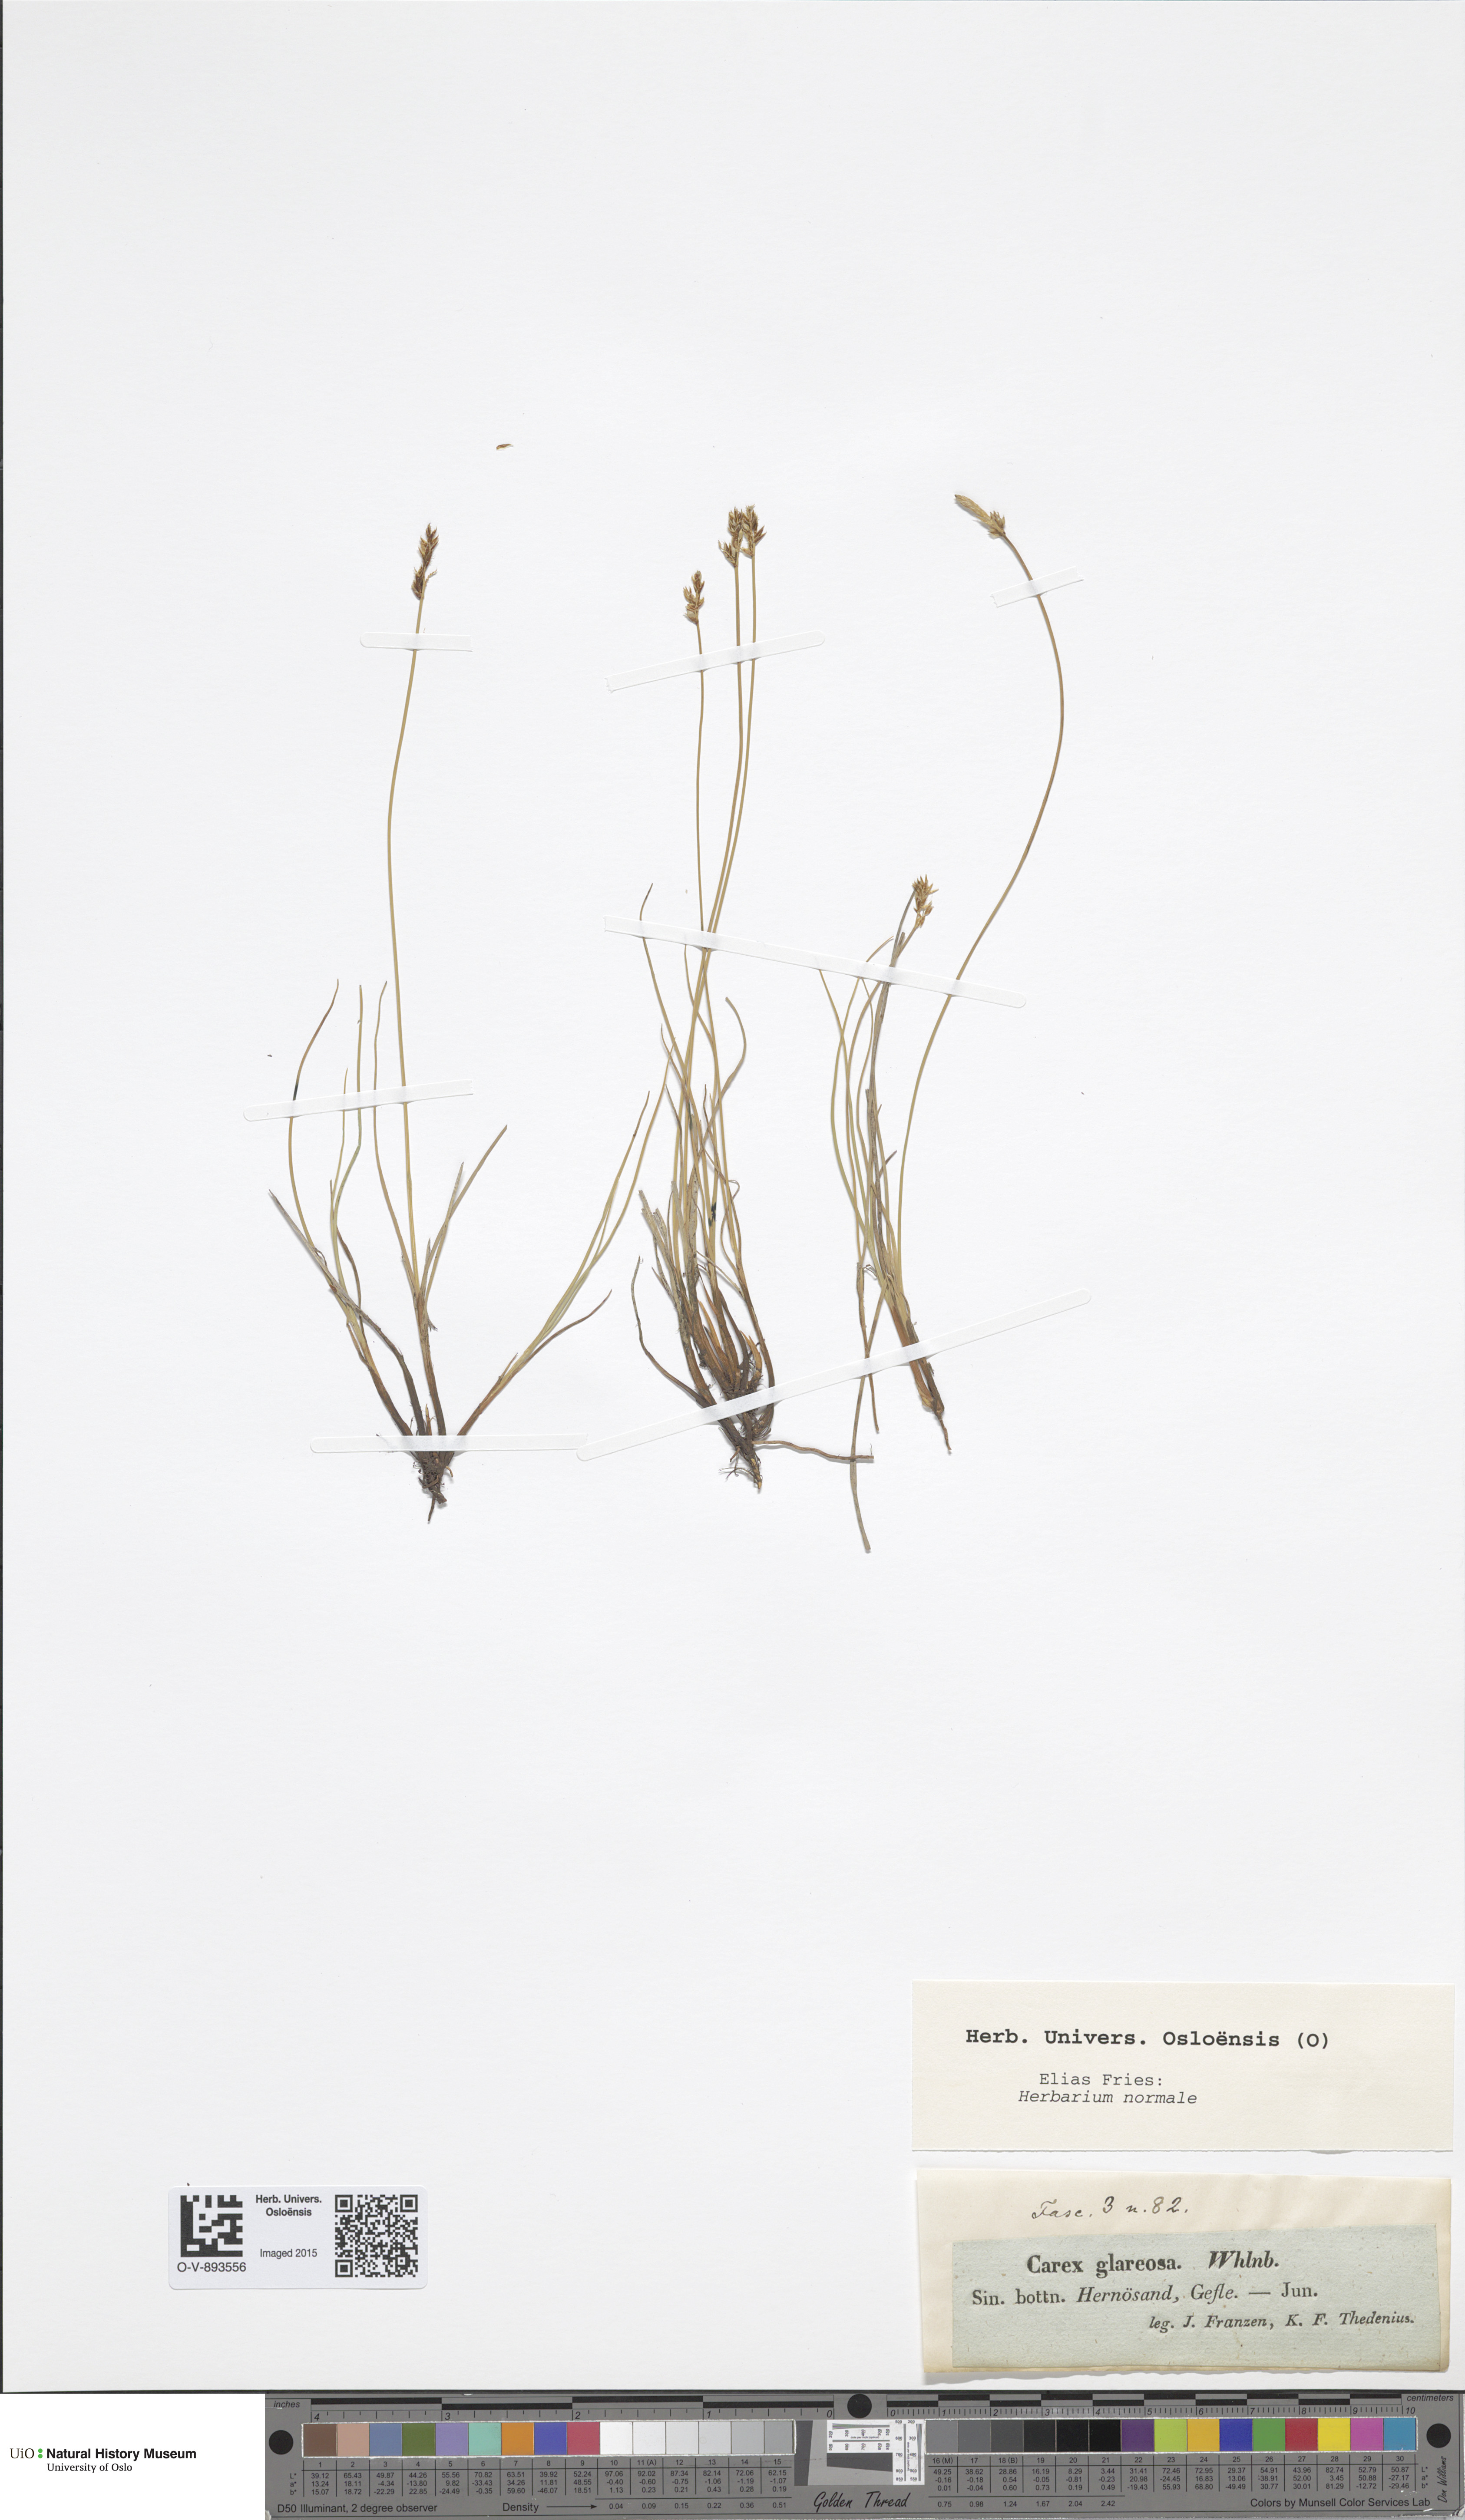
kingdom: Plantae
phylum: Tracheophyta
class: Liliopsida
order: Poales
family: Cyperaceae
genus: Carex
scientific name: Carex glareosa
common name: Clustered sedge
